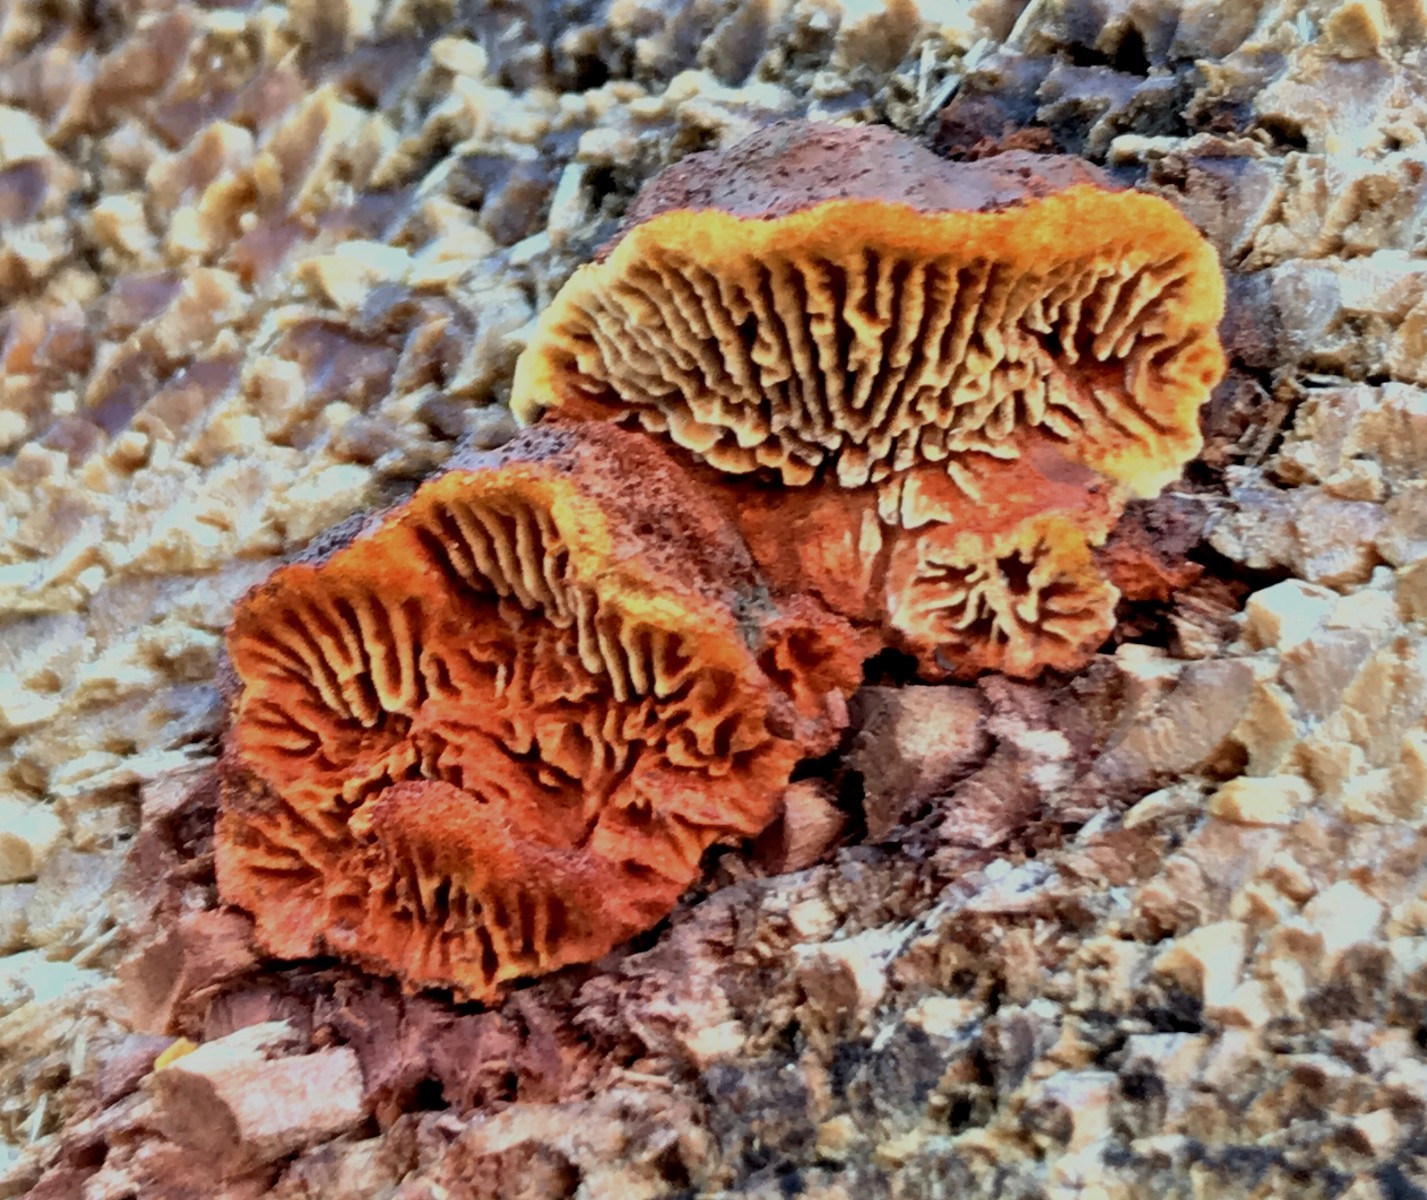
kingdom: Fungi
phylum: Basidiomycota
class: Agaricomycetes
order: Gloeophyllales
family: Gloeophyllaceae
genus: Gloeophyllum
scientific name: Gloeophyllum sepiarium
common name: fyrre-korkhat
